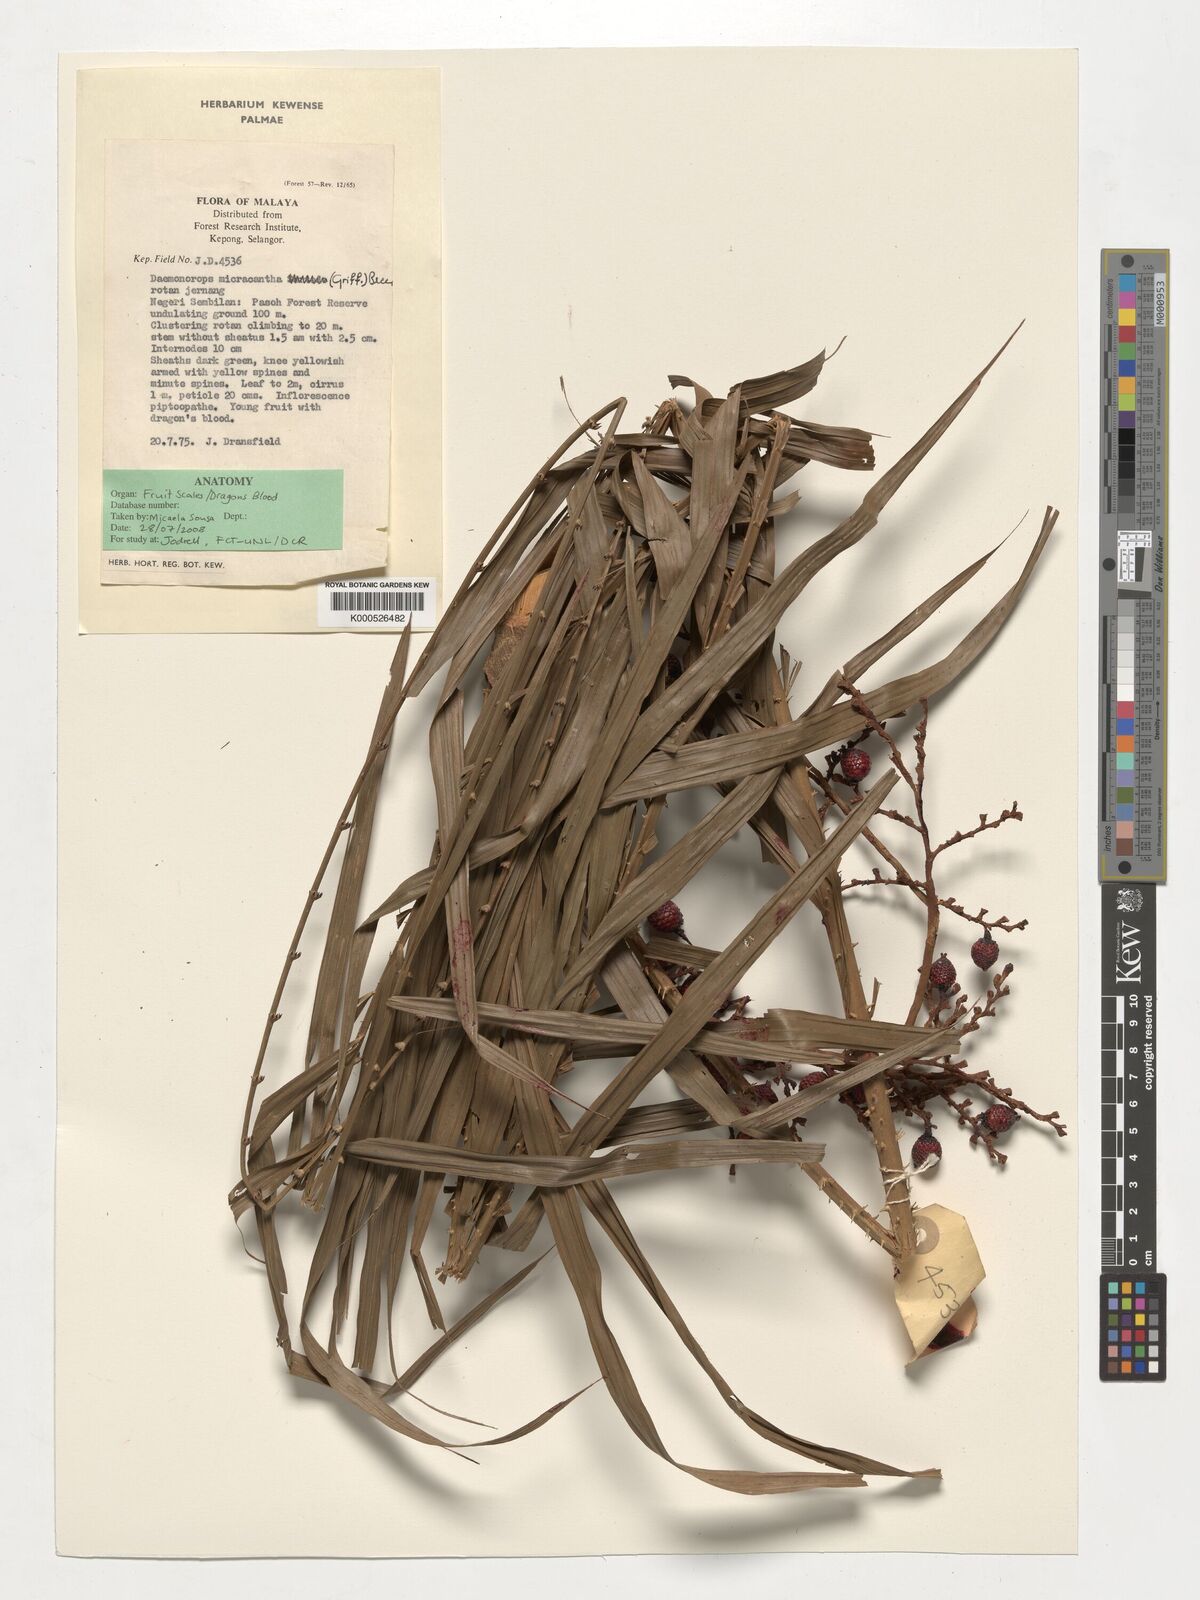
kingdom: Plantae
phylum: Tracheophyta
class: Liliopsida
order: Arecales
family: Arecaceae
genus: Calamus
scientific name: Calamus micracanthus
